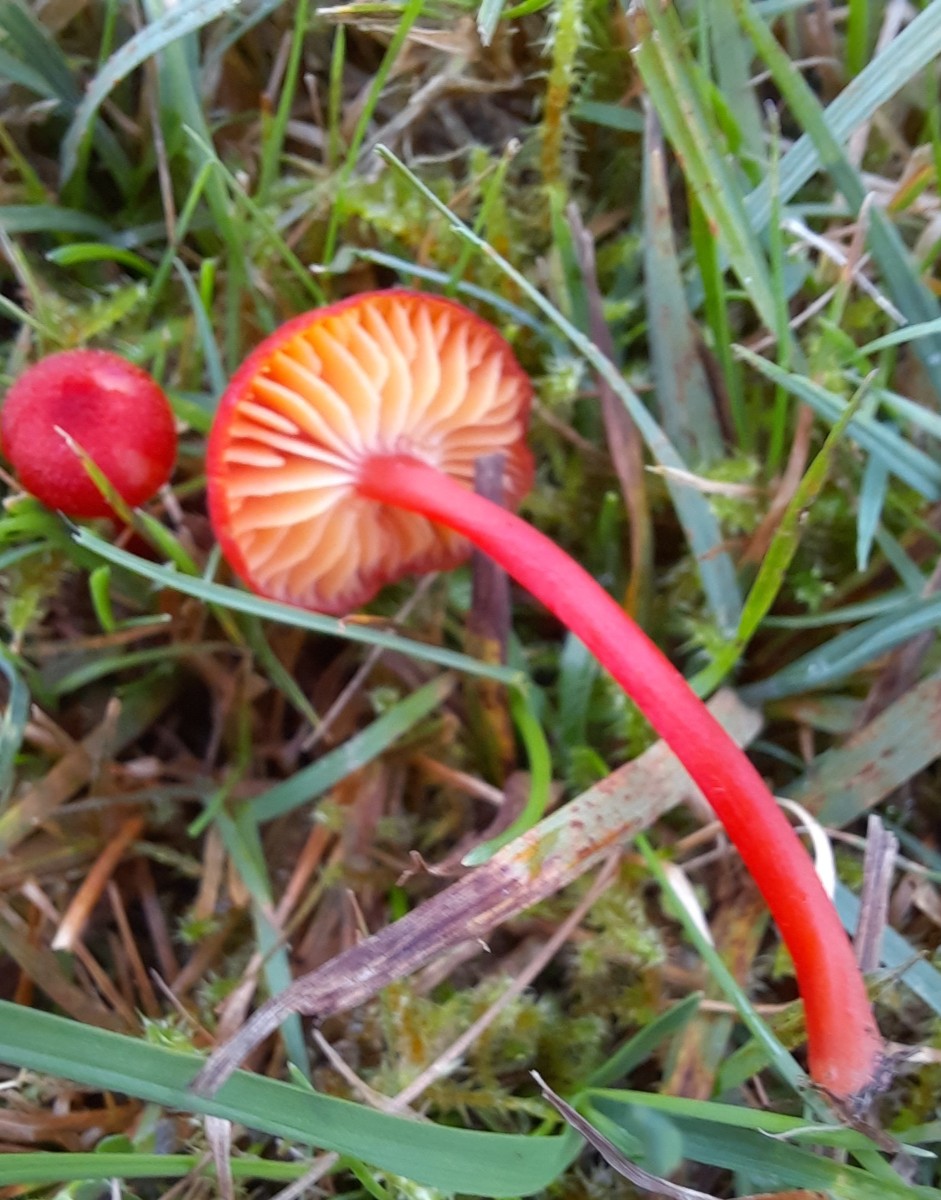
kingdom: Fungi
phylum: Basidiomycota
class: Agaricomycetes
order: Agaricales
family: Hygrophoraceae
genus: Hygrocybe
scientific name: Hygrocybe helobia
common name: hvidløgs-vokshat
